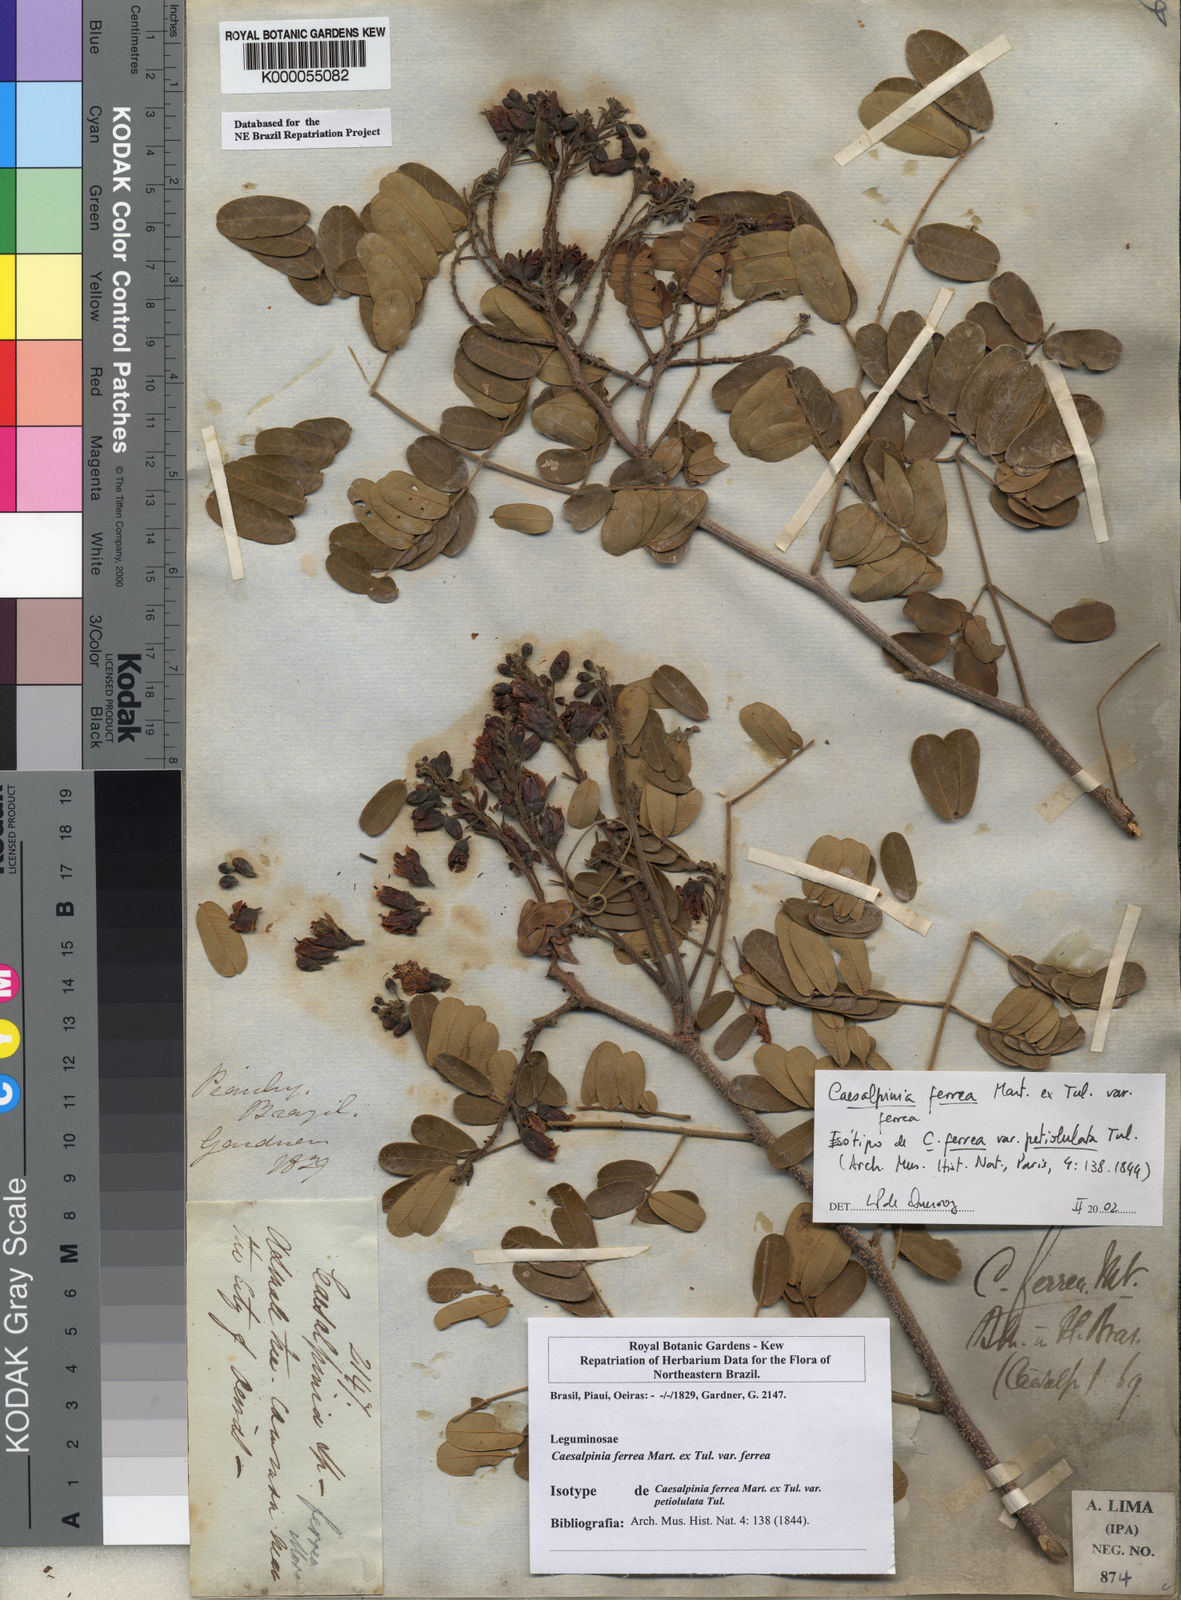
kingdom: Plantae
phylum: Tracheophyta
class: Magnoliopsida
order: Fabales
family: Fabaceae
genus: Libidibia
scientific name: Libidibia ferrea
